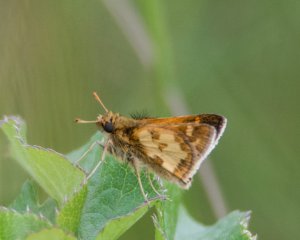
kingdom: Animalia
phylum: Arthropoda
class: Insecta
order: Lepidoptera
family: Hesperiidae
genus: Polites
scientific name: Polites coras
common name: Peck's Skipper
